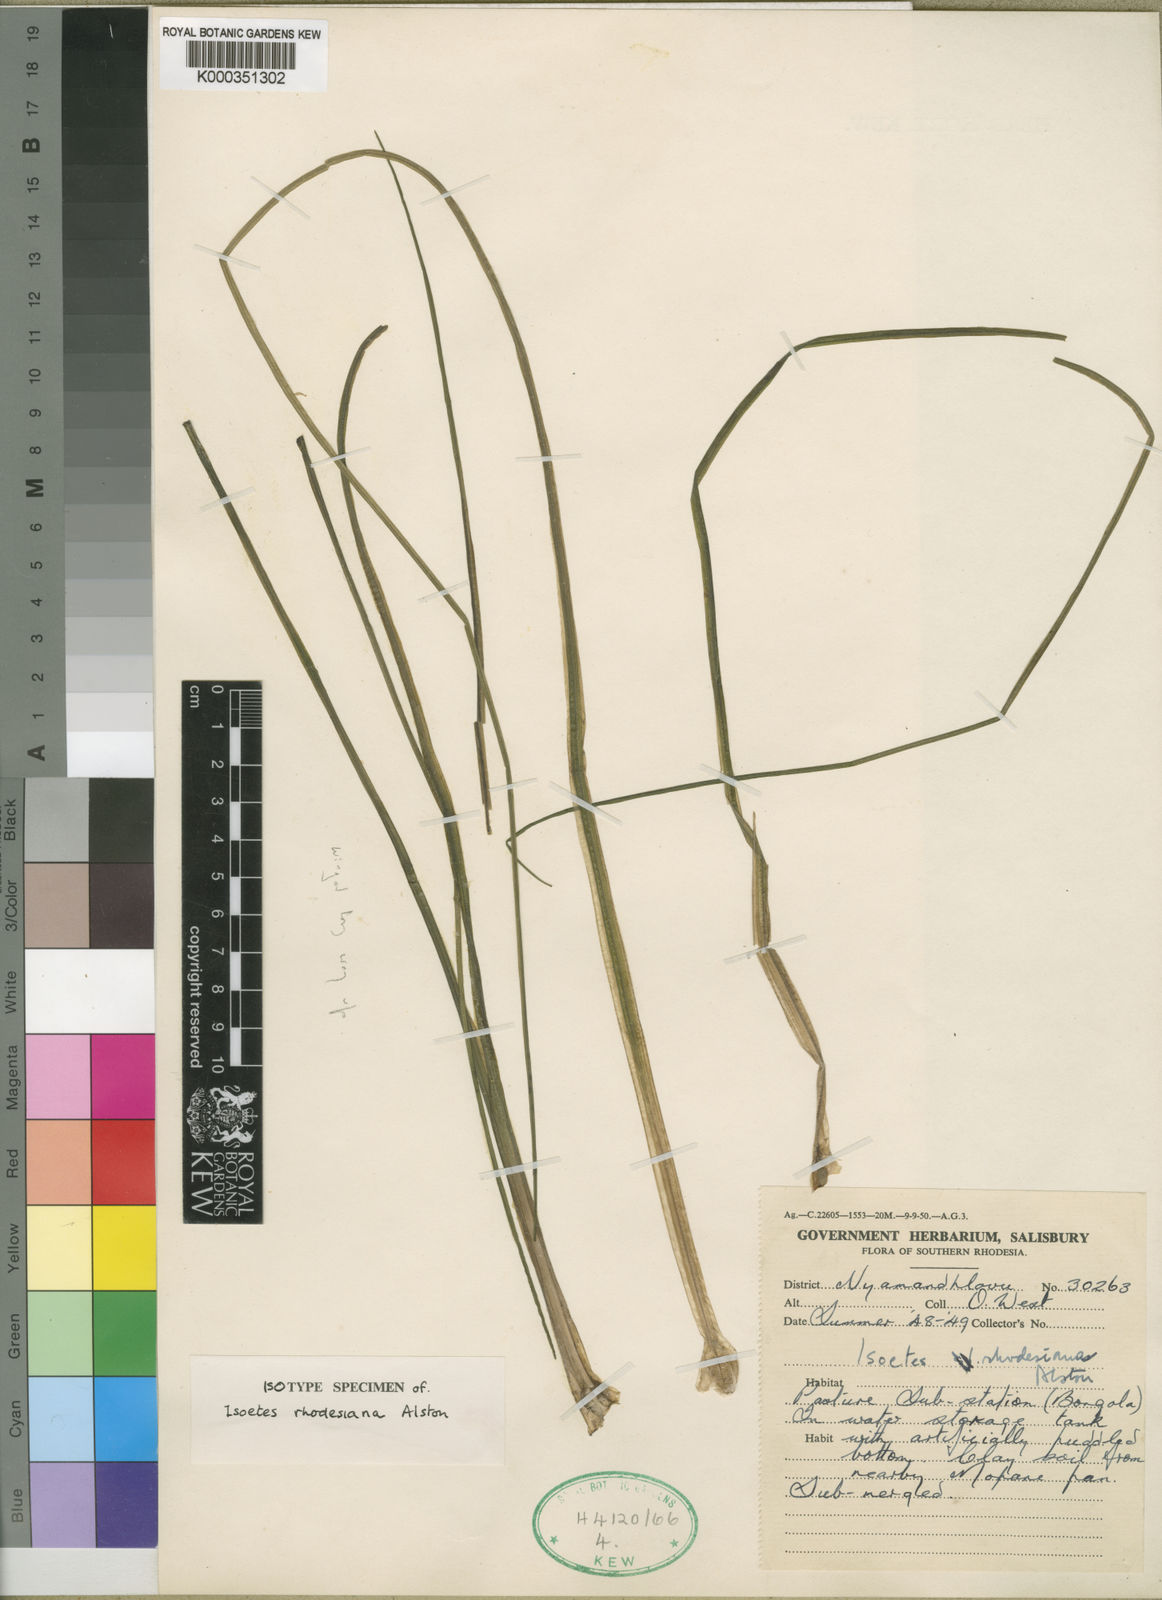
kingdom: Plantae
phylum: Tracheophyta
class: Lycopodiopsida
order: Isoetales
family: Isoetaceae
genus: Isoetes
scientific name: Isoetes
